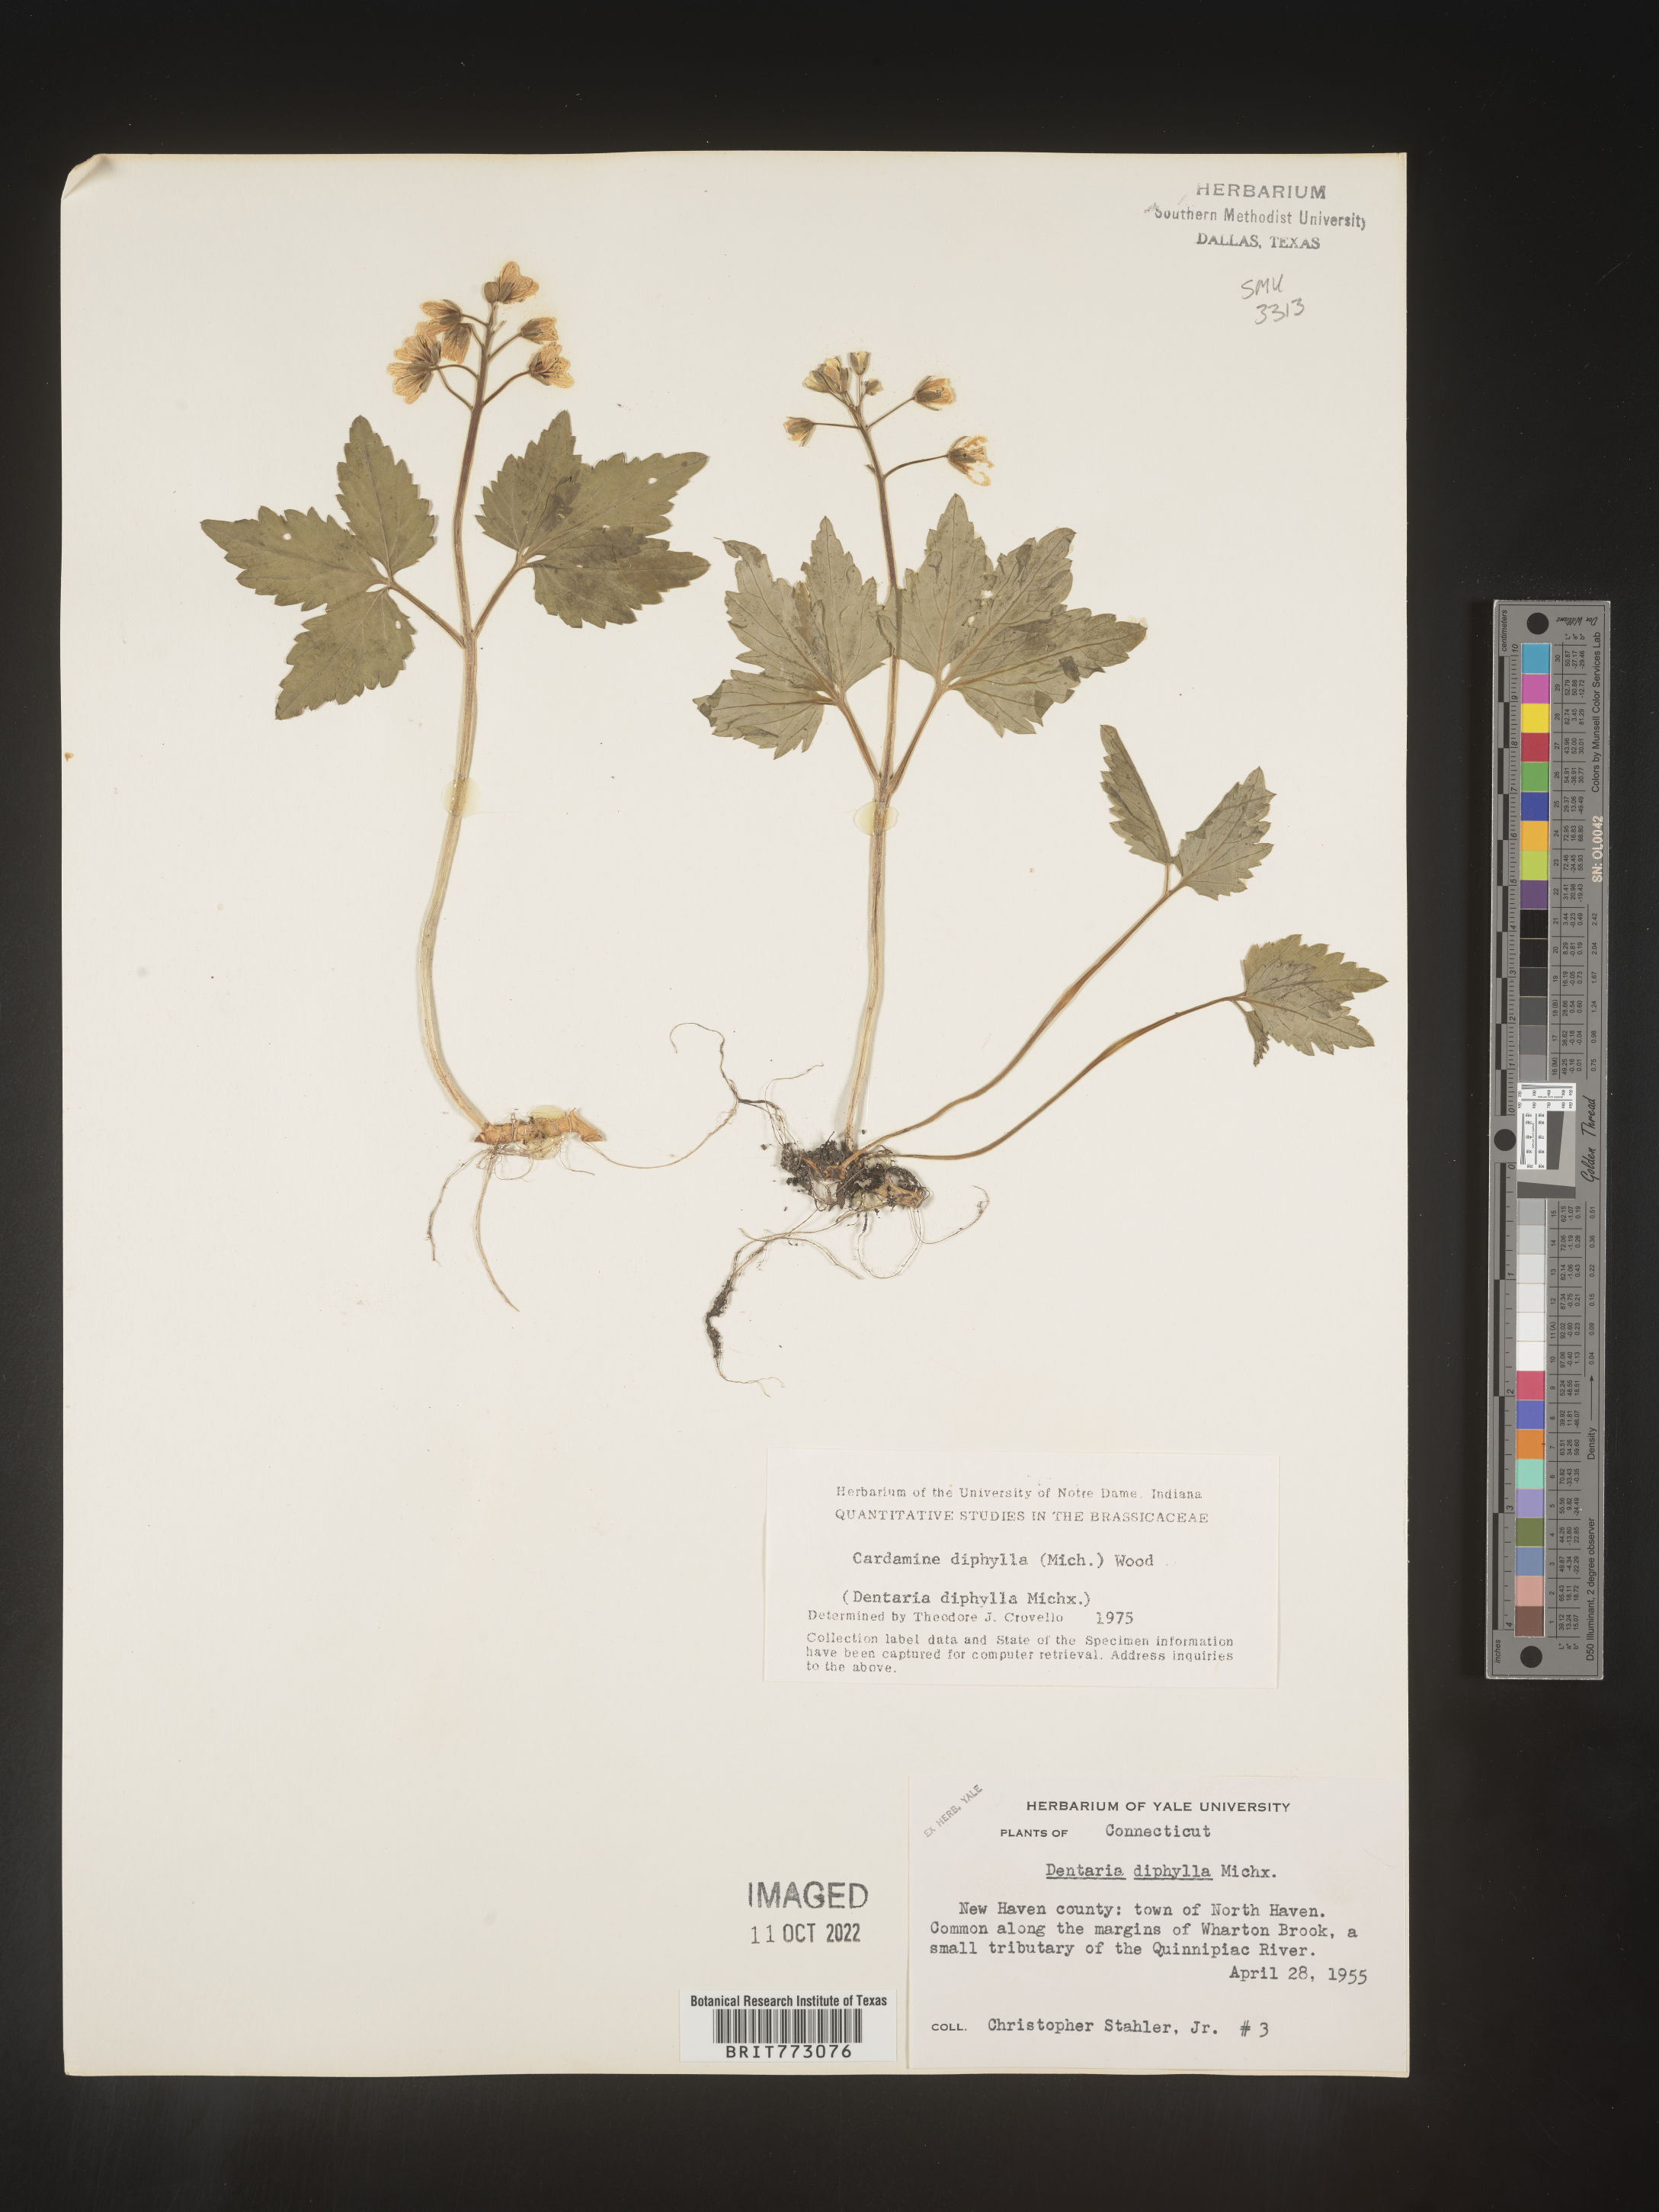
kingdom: Plantae
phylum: Tracheophyta
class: Magnoliopsida
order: Brassicales
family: Brassicaceae
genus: Cardamine
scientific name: Cardamine diphylla
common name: Broad-leaved toothwort
